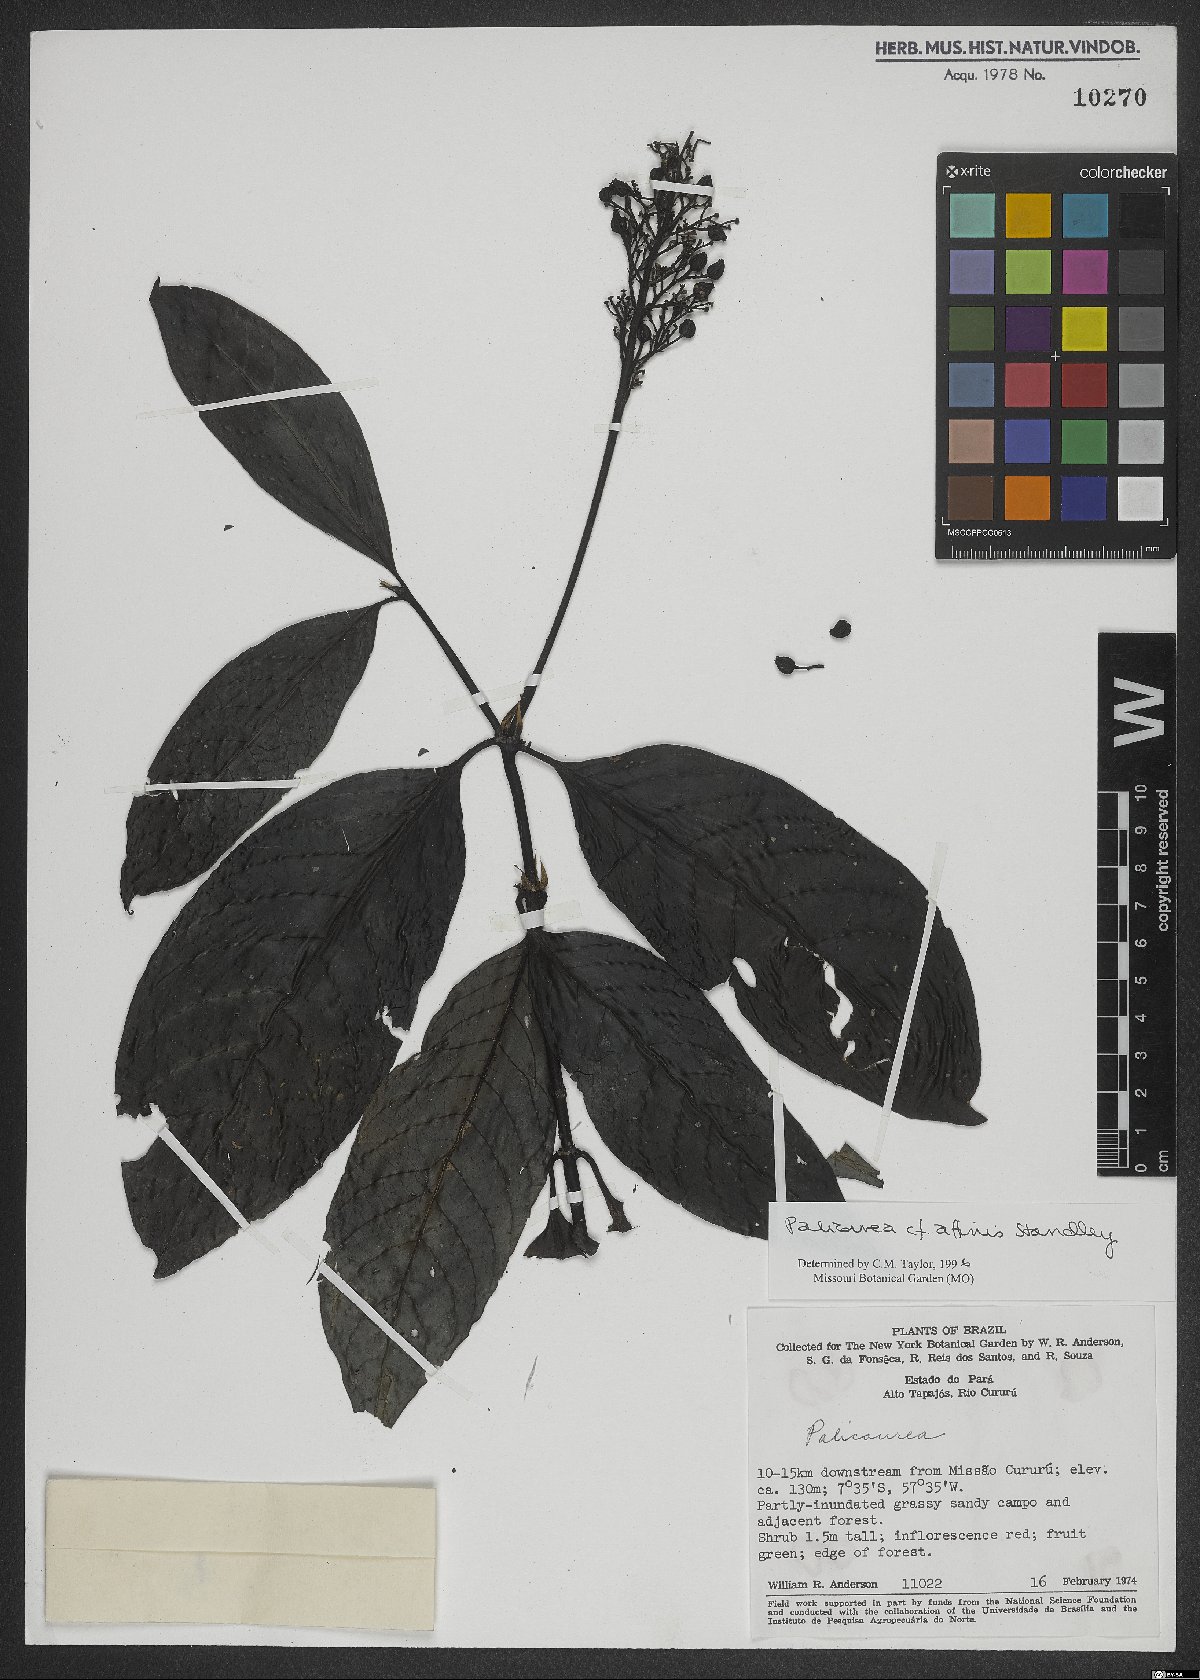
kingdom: Plantae
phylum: Tracheophyta
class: Magnoliopsida
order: Gentianales
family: Rubiaceae
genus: Palicourea
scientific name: Palicourea affinis
